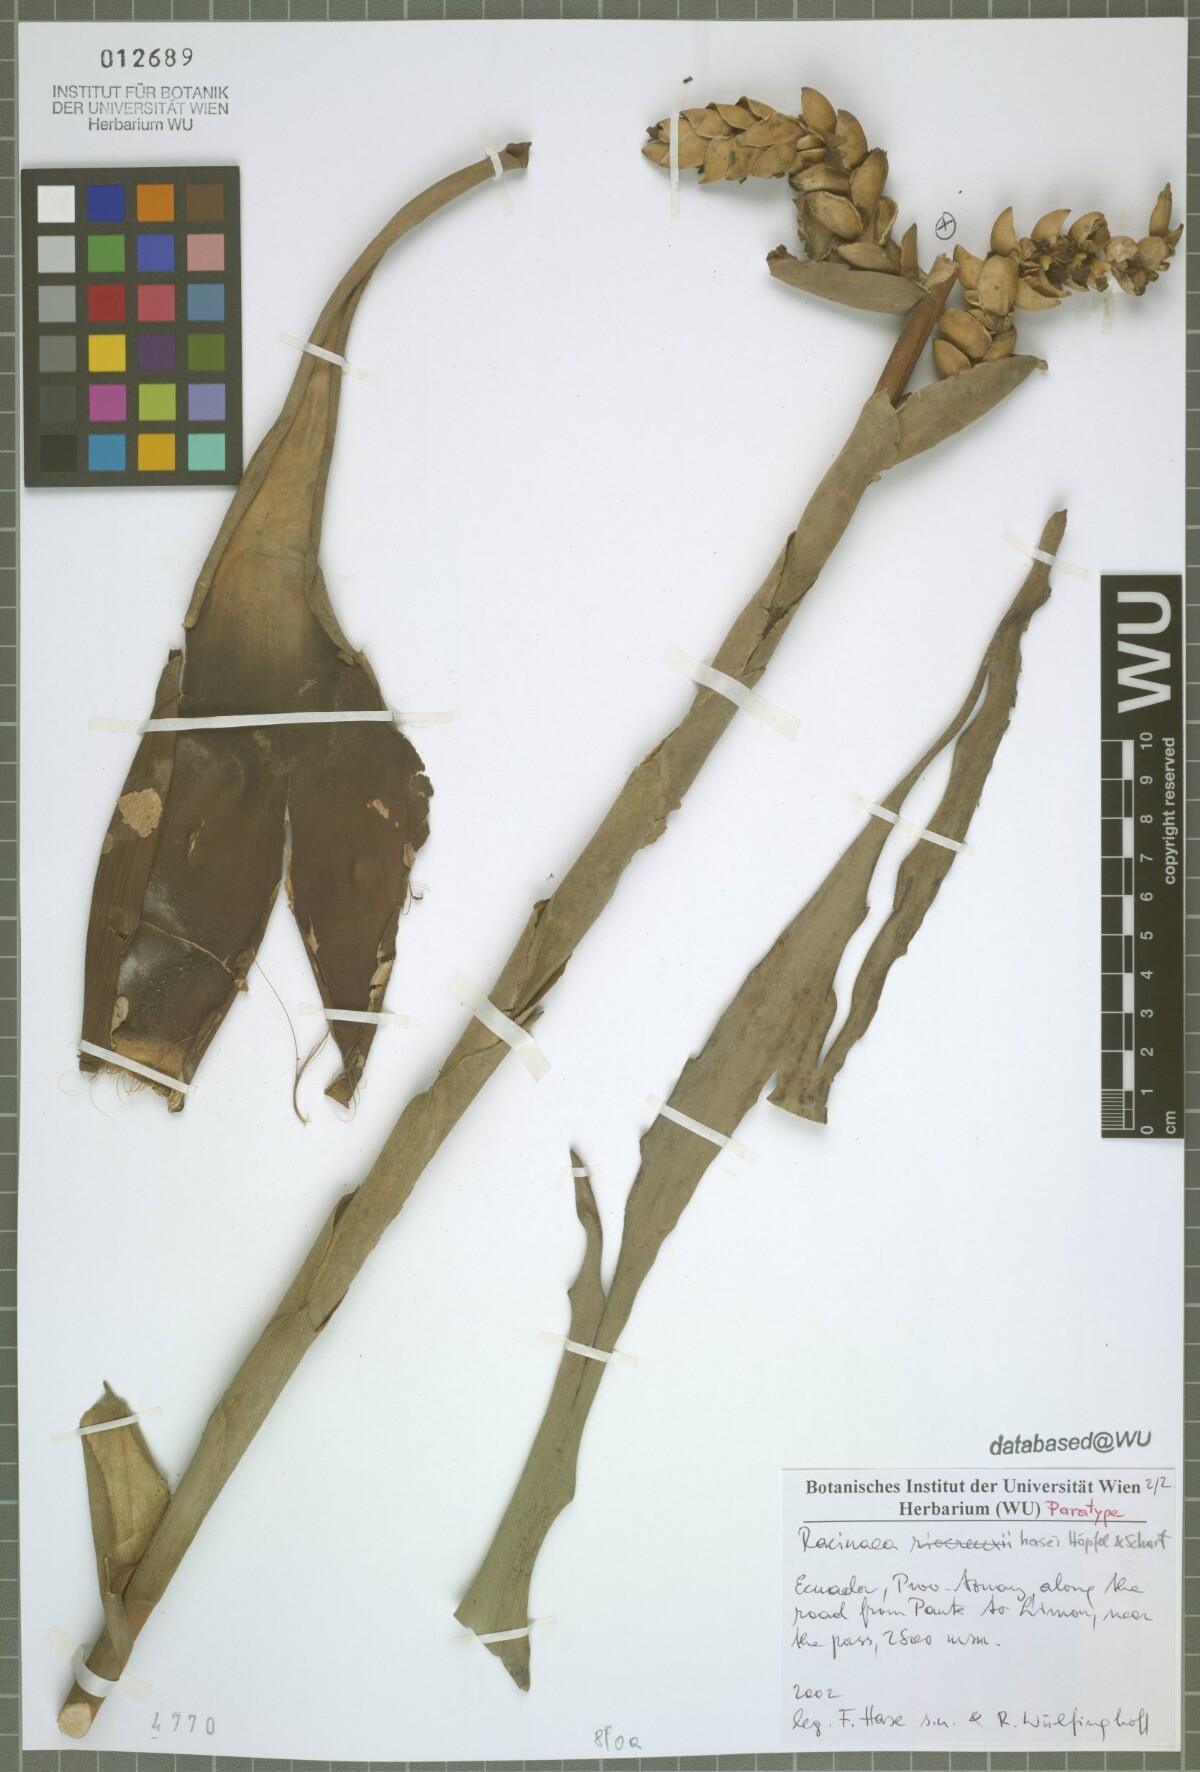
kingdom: Plantae
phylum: Tracheophyta
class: Liliopsida
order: Poales
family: Bromeliaceae
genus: Racinaea
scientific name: Racinaea hasei
